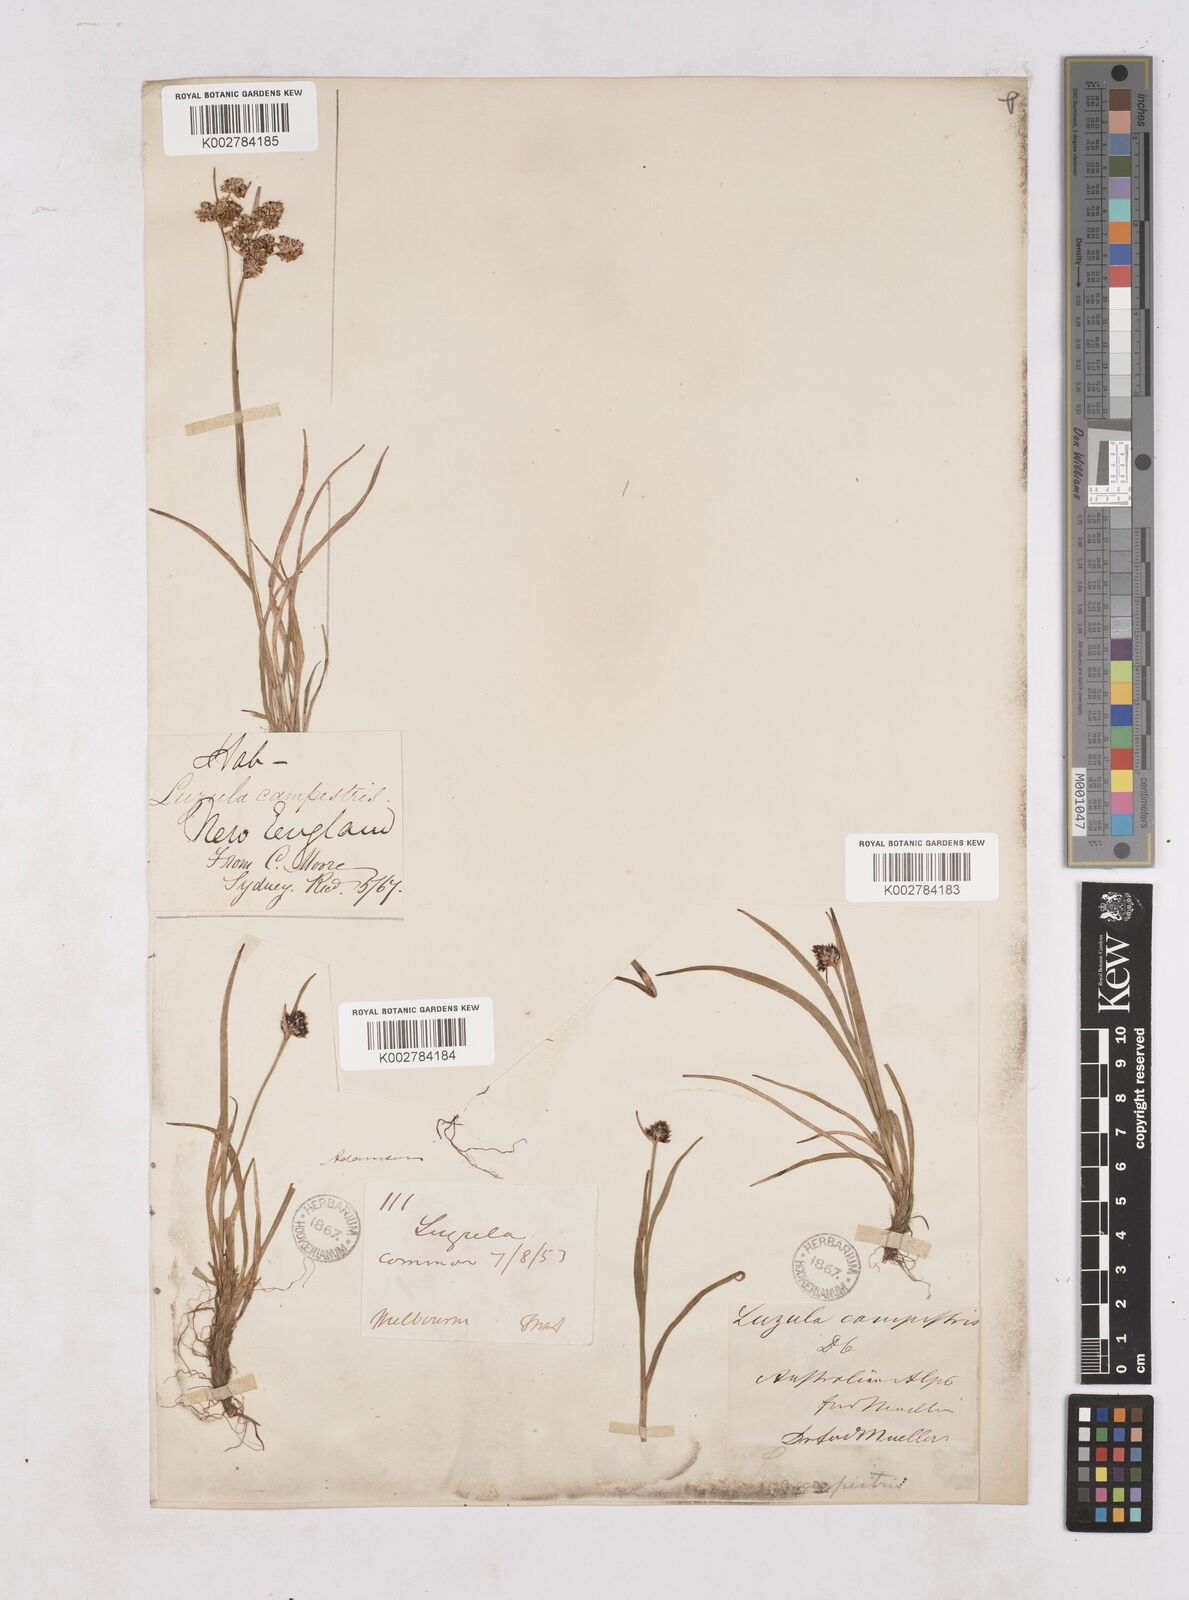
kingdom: Plantae
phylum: Tracheophyta
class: Liliopsida
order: Poales
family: Juncaceae
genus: Luzula
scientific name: Luzula campestris
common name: Field wood-rush
